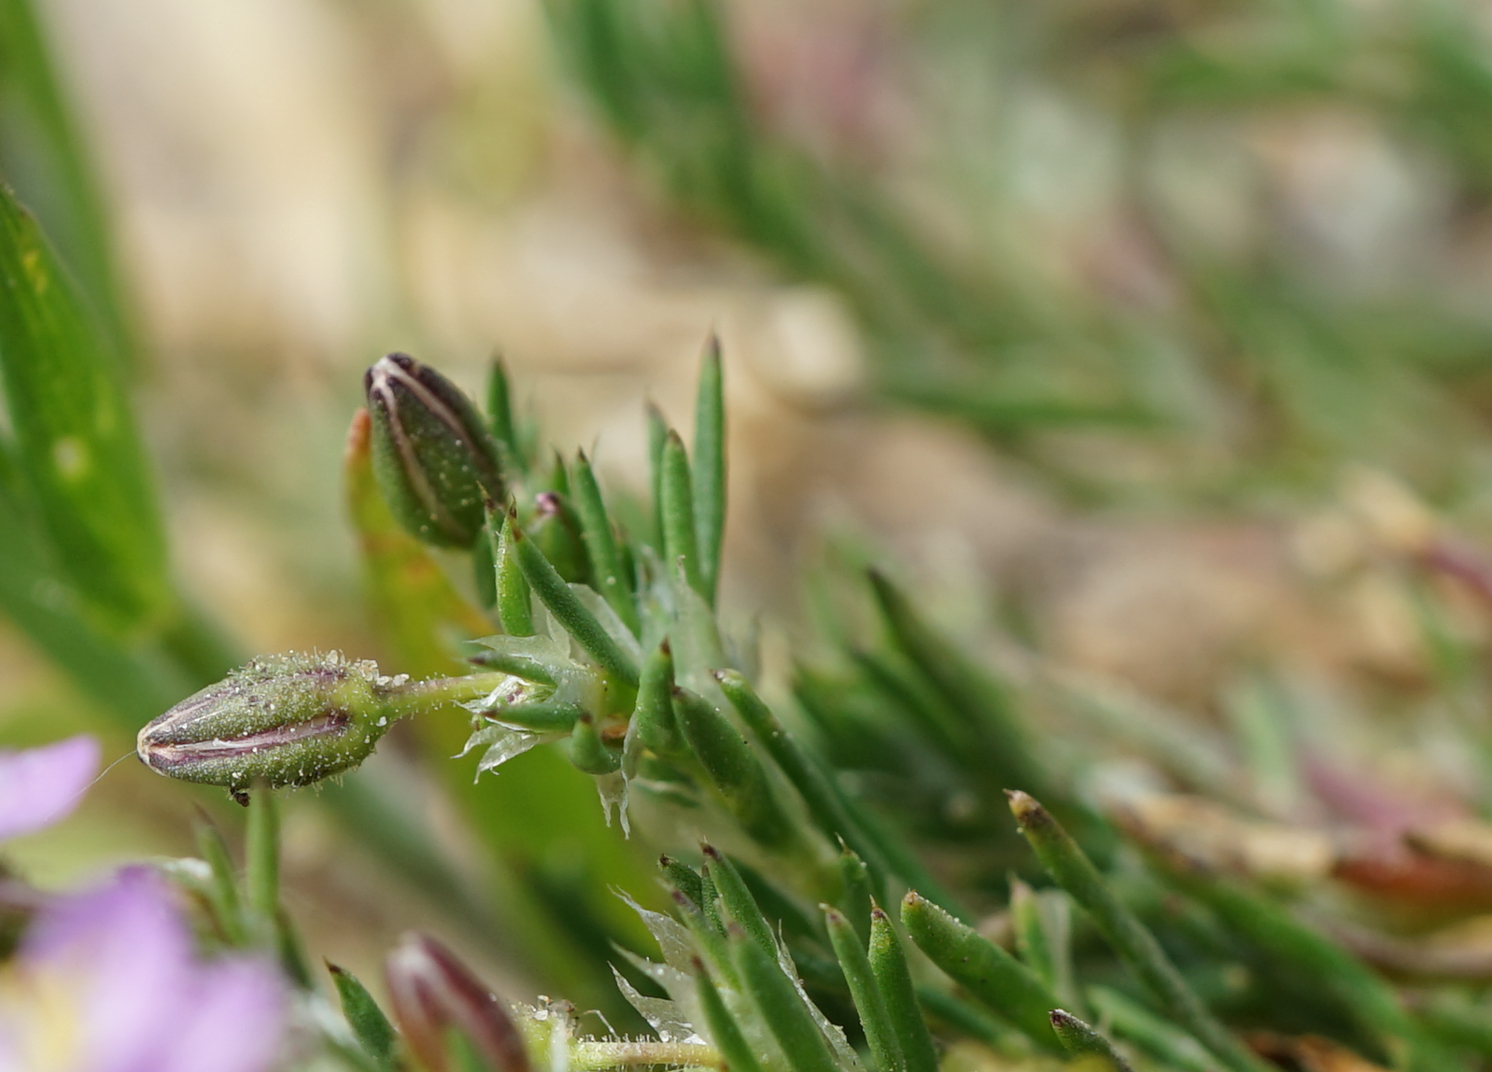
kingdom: Plantae
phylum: Tracheophyta
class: Magnoliopsida
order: Caryophyllales
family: Caryophyllaceae
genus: Spergularia
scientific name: Spergularia rubra
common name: Red sand-spurrey
